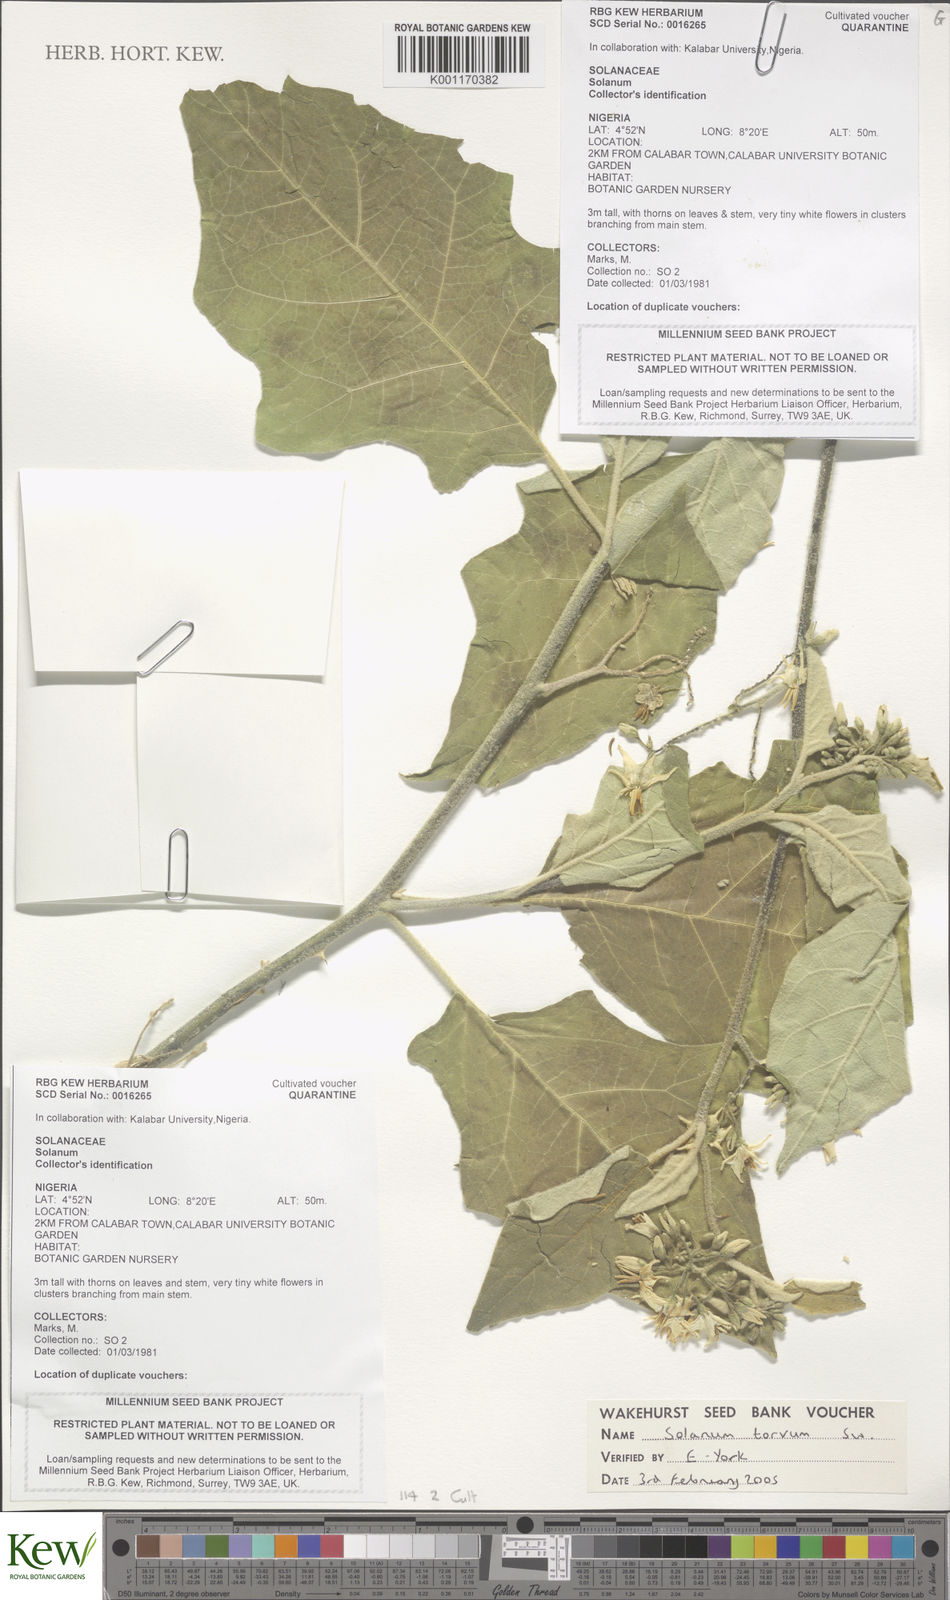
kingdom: Plantae
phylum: Tracheophyta
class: Magnoliopsida
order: Solanales
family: Solanaceae
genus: Solanum
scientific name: Solanum torvum
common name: Turkey berry
